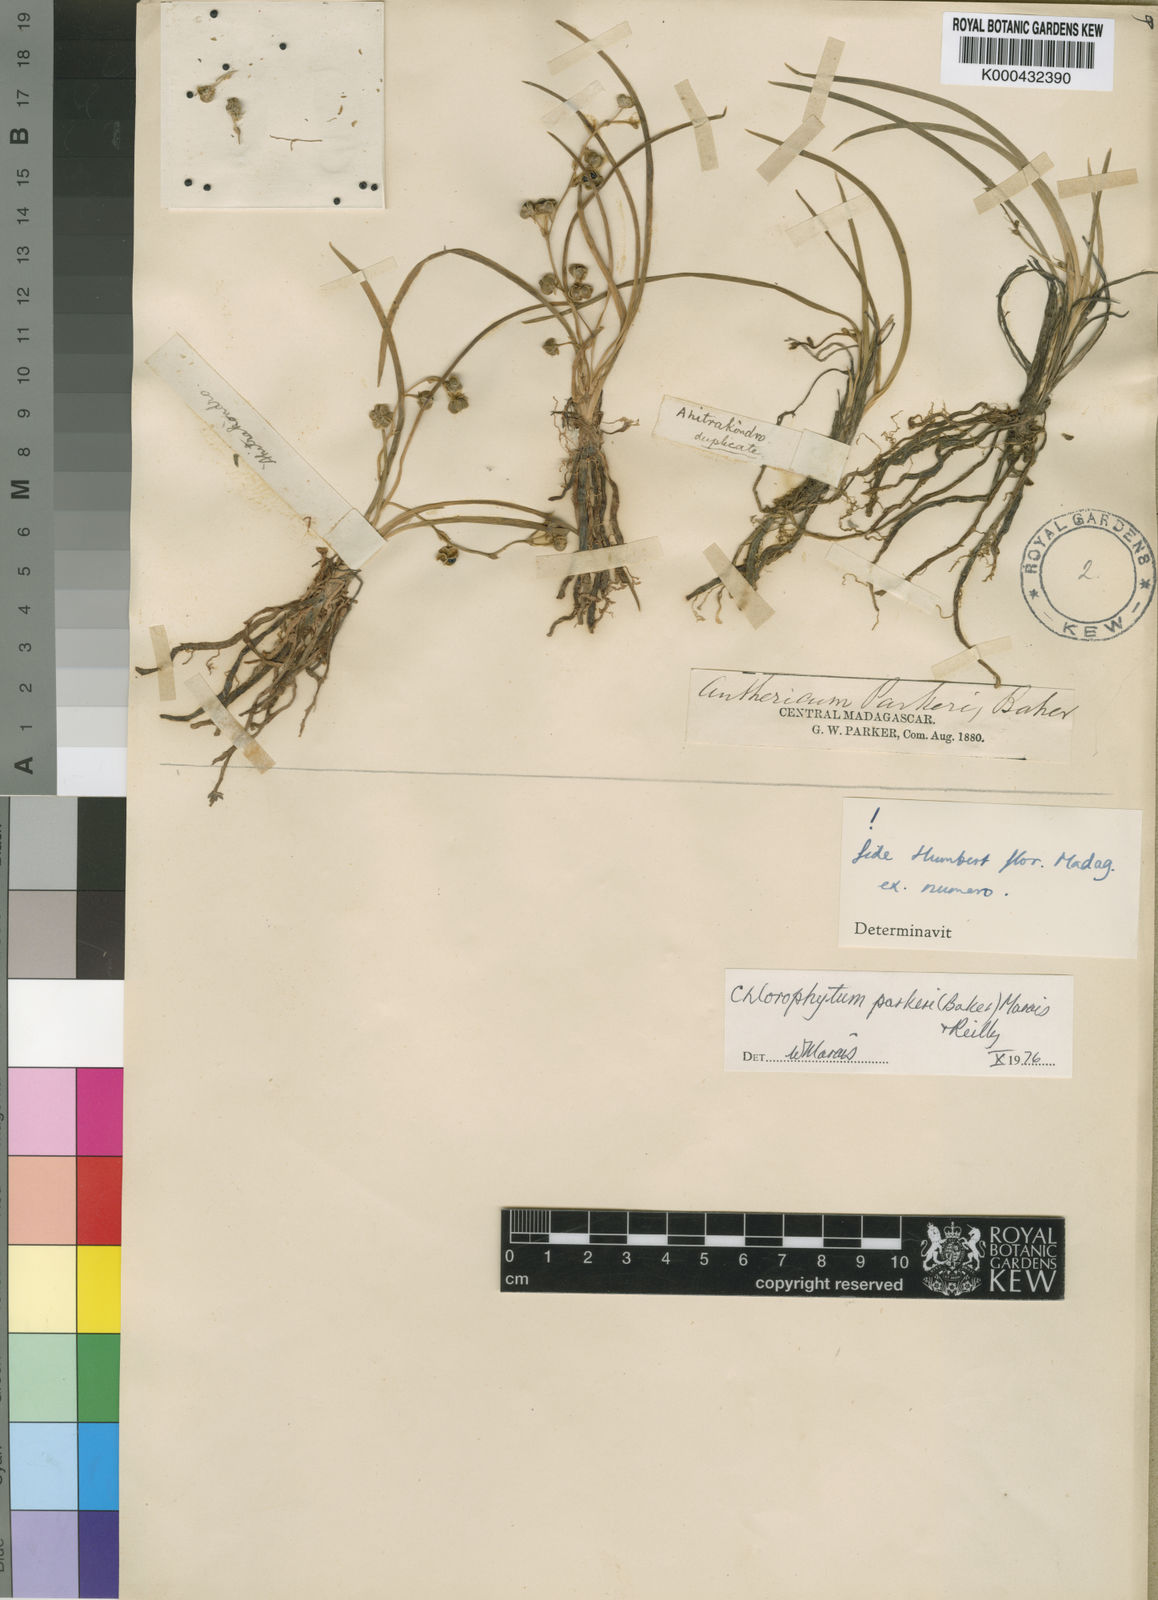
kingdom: Plantae
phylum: Tracheophyta
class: Liliopsida
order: Asparagales
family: Asparagaceae
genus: Chlorophytum
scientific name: Chlorophytum parkeri
